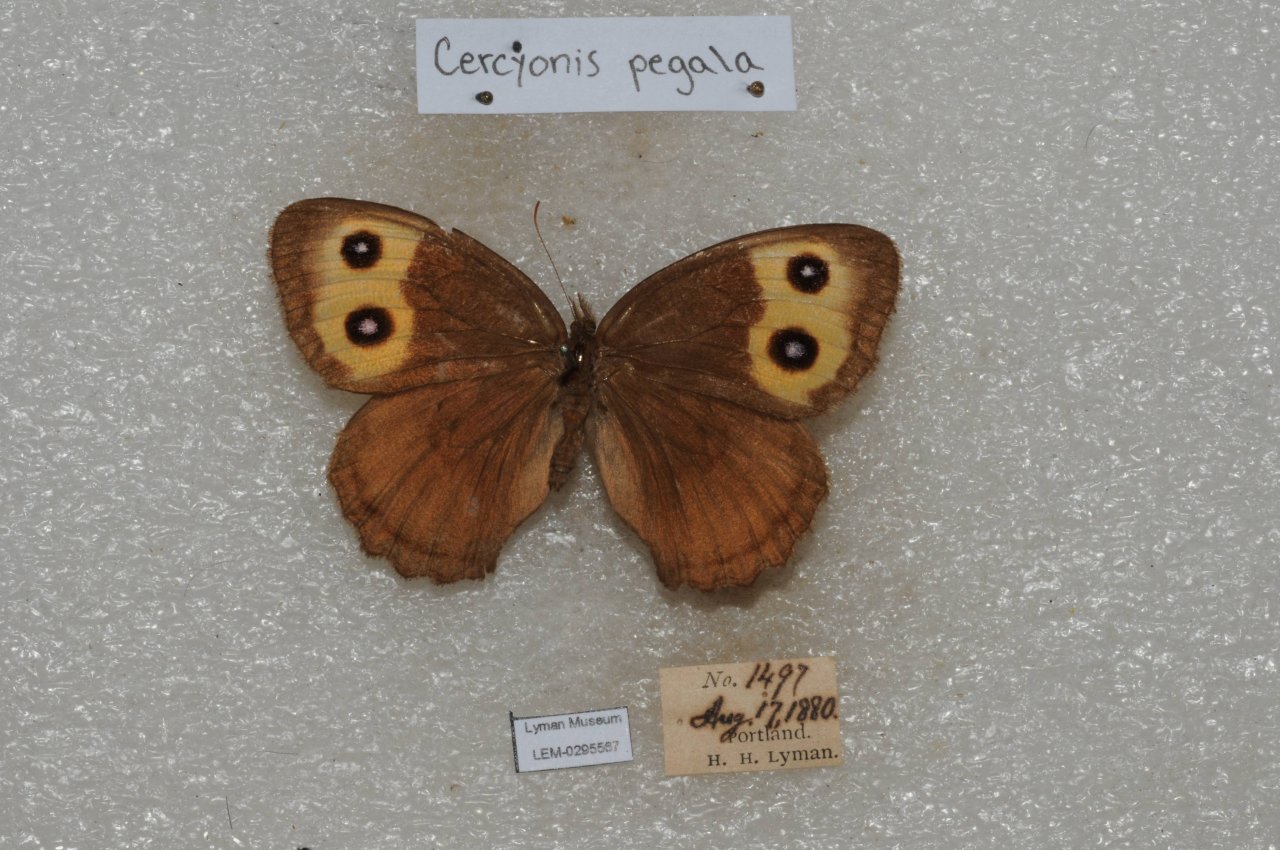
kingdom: Animalia
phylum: Arthropoda
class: Insecta
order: Lepidoptera
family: Nymphalidae
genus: Cercyonis
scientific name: Cercyonis pegala
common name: Common Wood-Nymph
